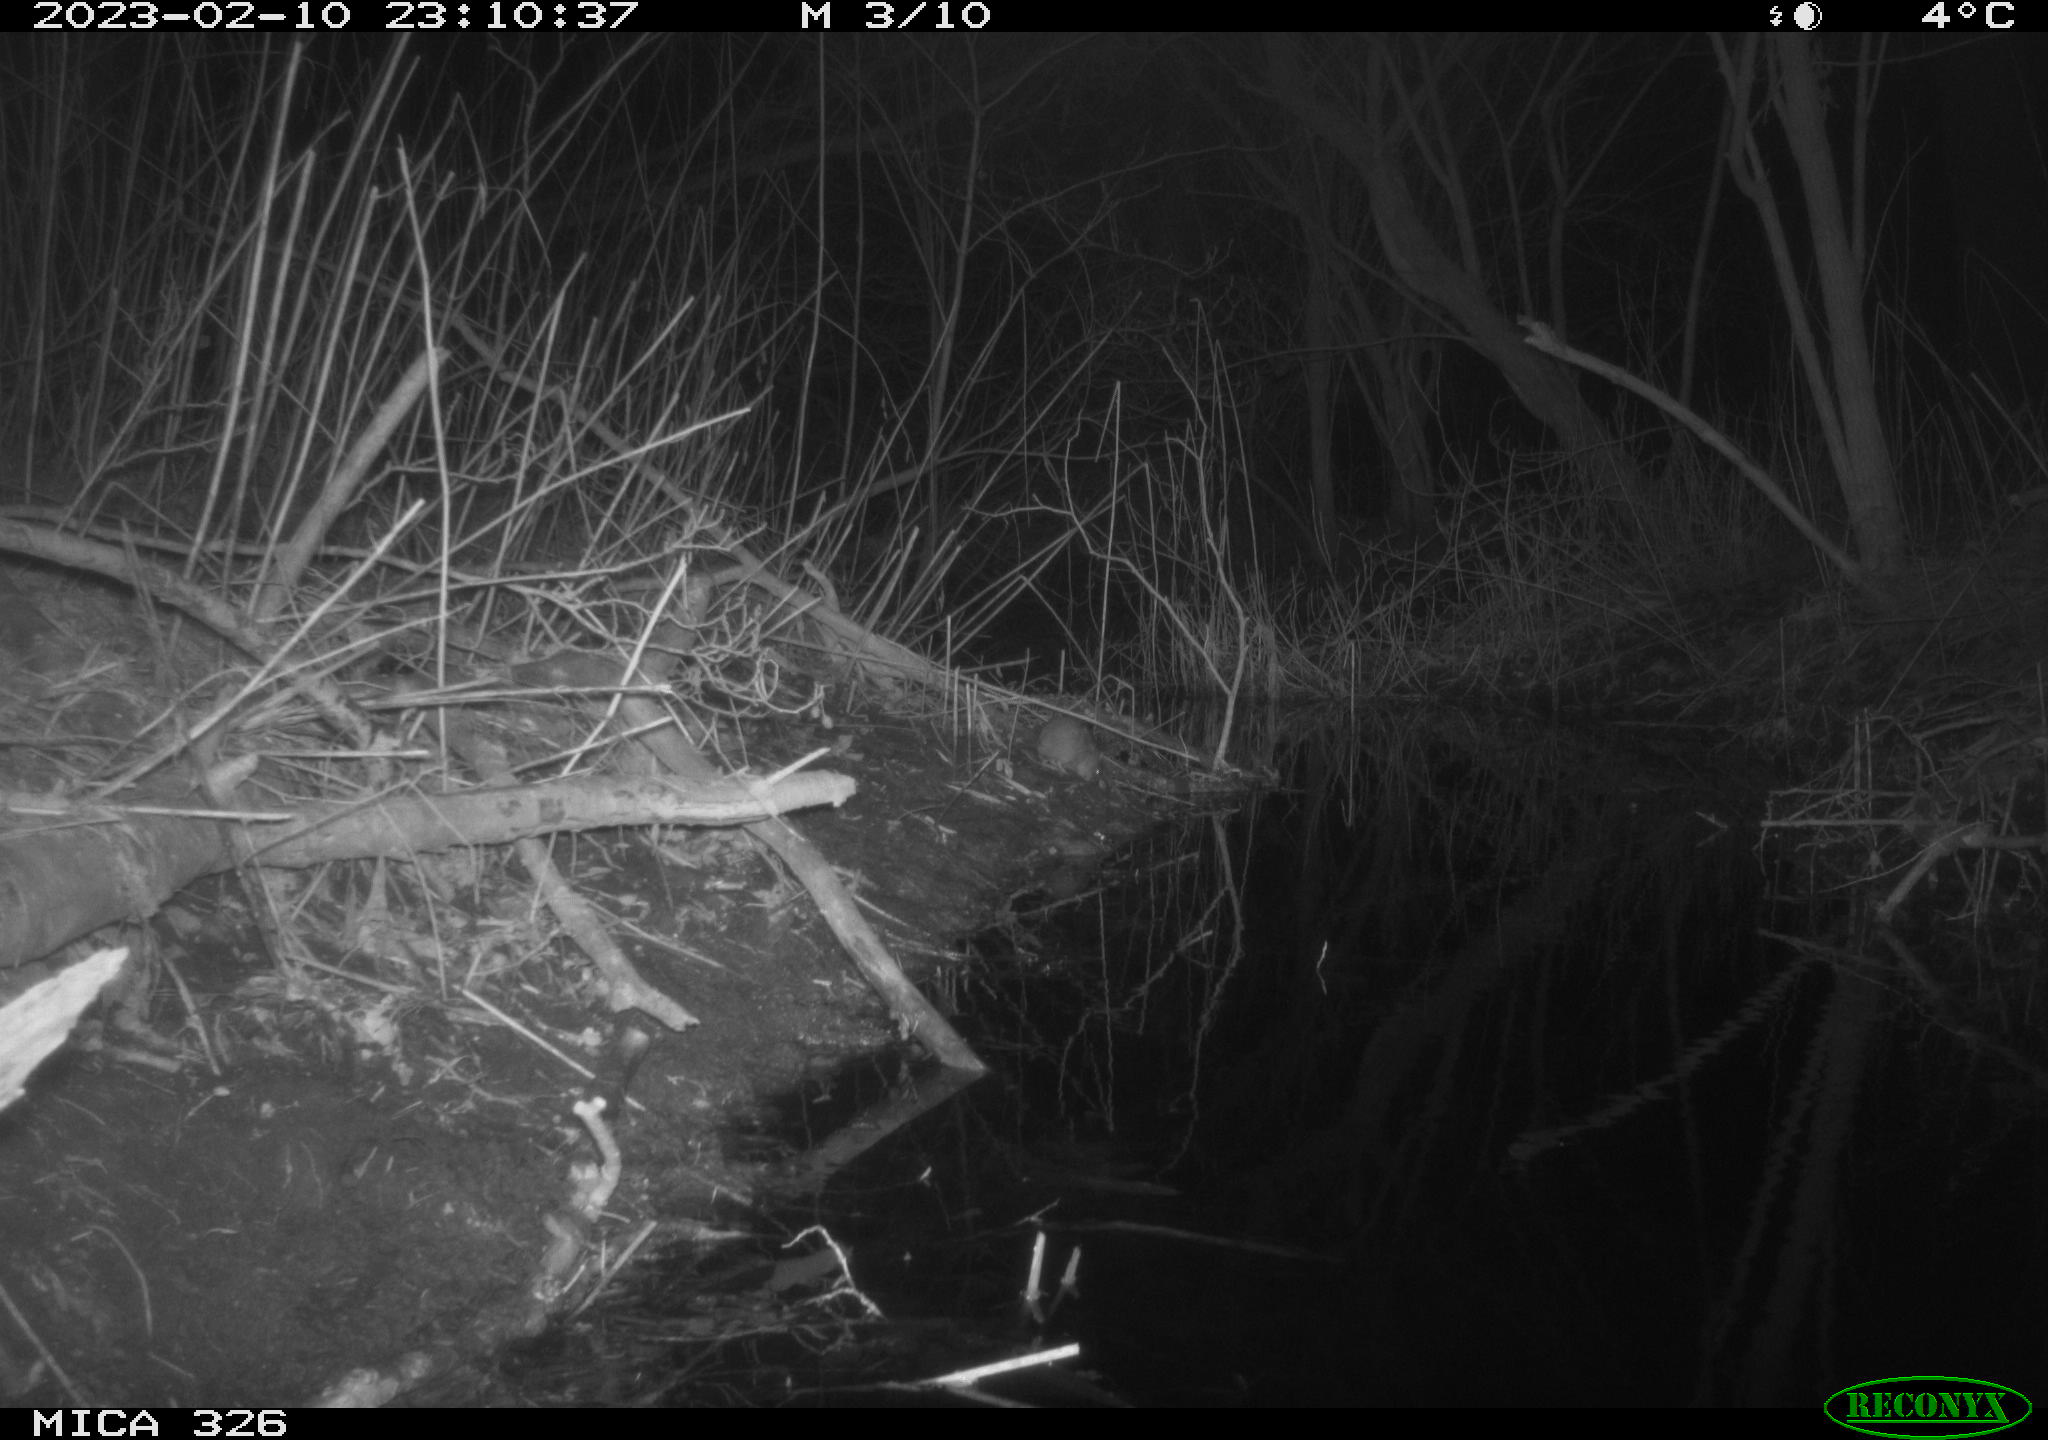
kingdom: Animalia
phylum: Chordata
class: Mammalia
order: Rodentia
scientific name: Rodentia
